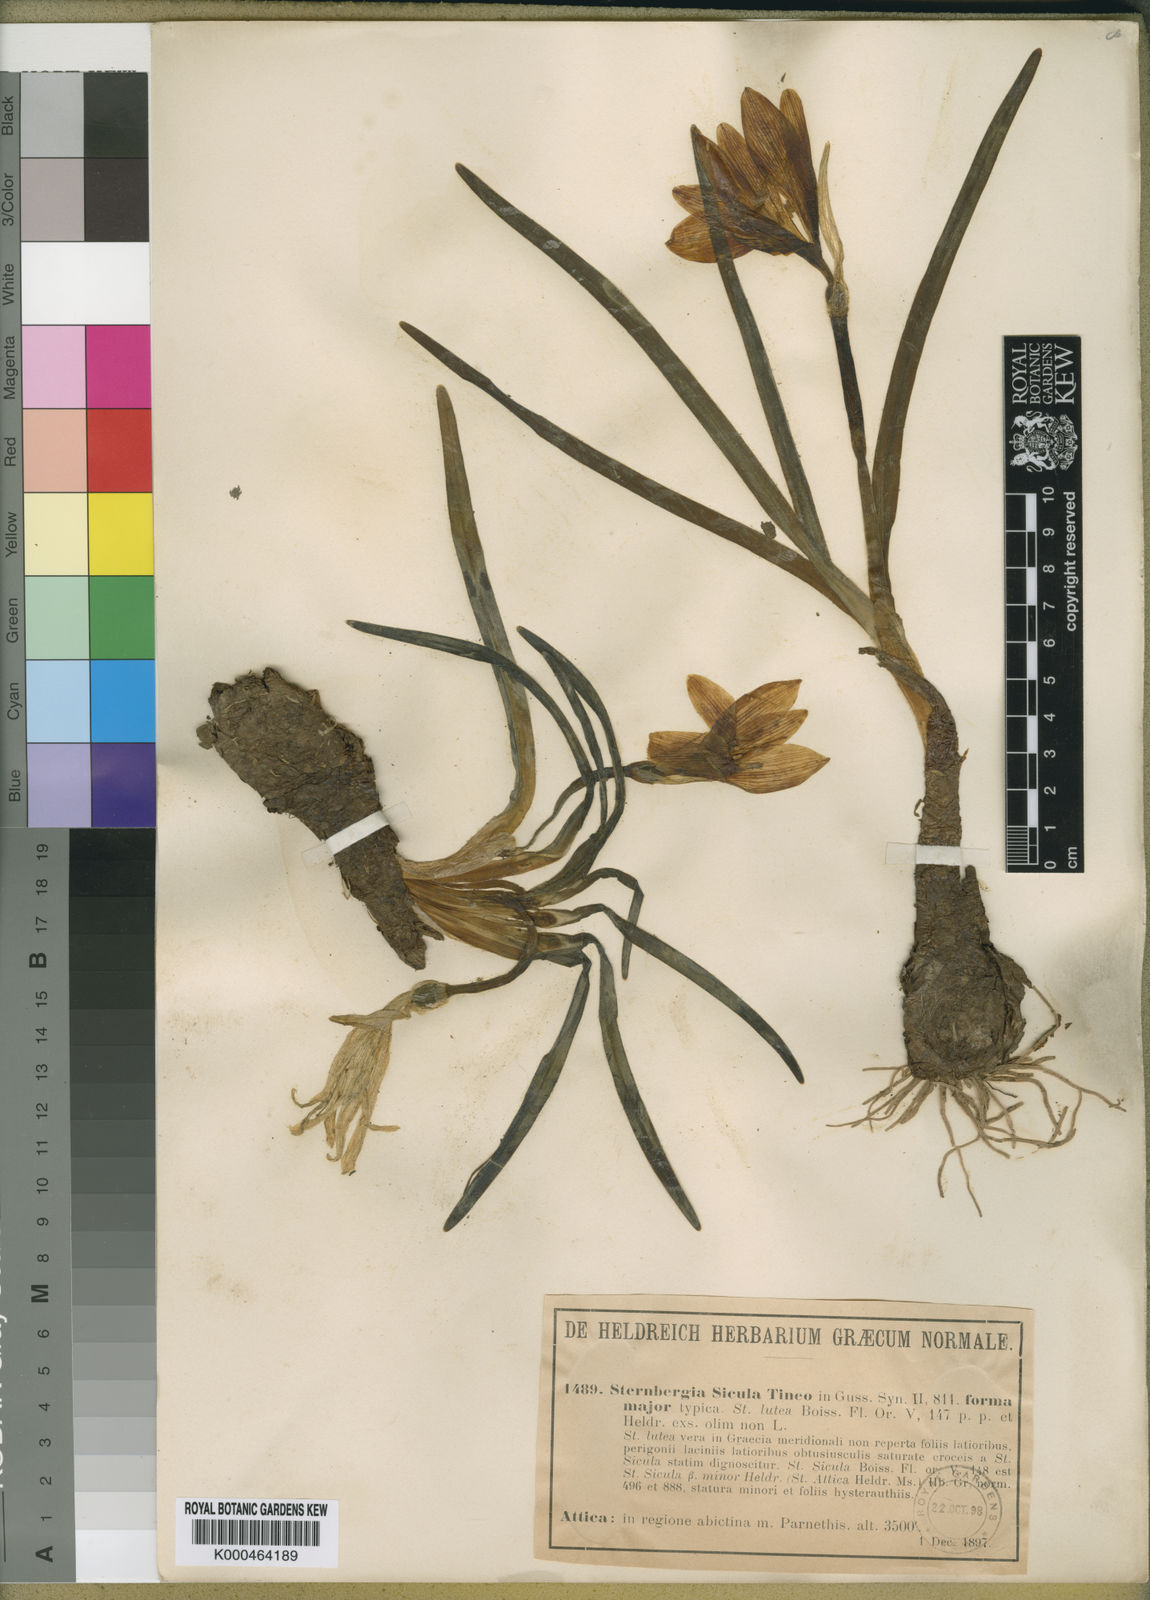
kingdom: Plantae
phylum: Tracheophyta
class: Liliopsida
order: Asparagales
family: Amaryllidaceae
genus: Sternbergia
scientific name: Sternbergia
